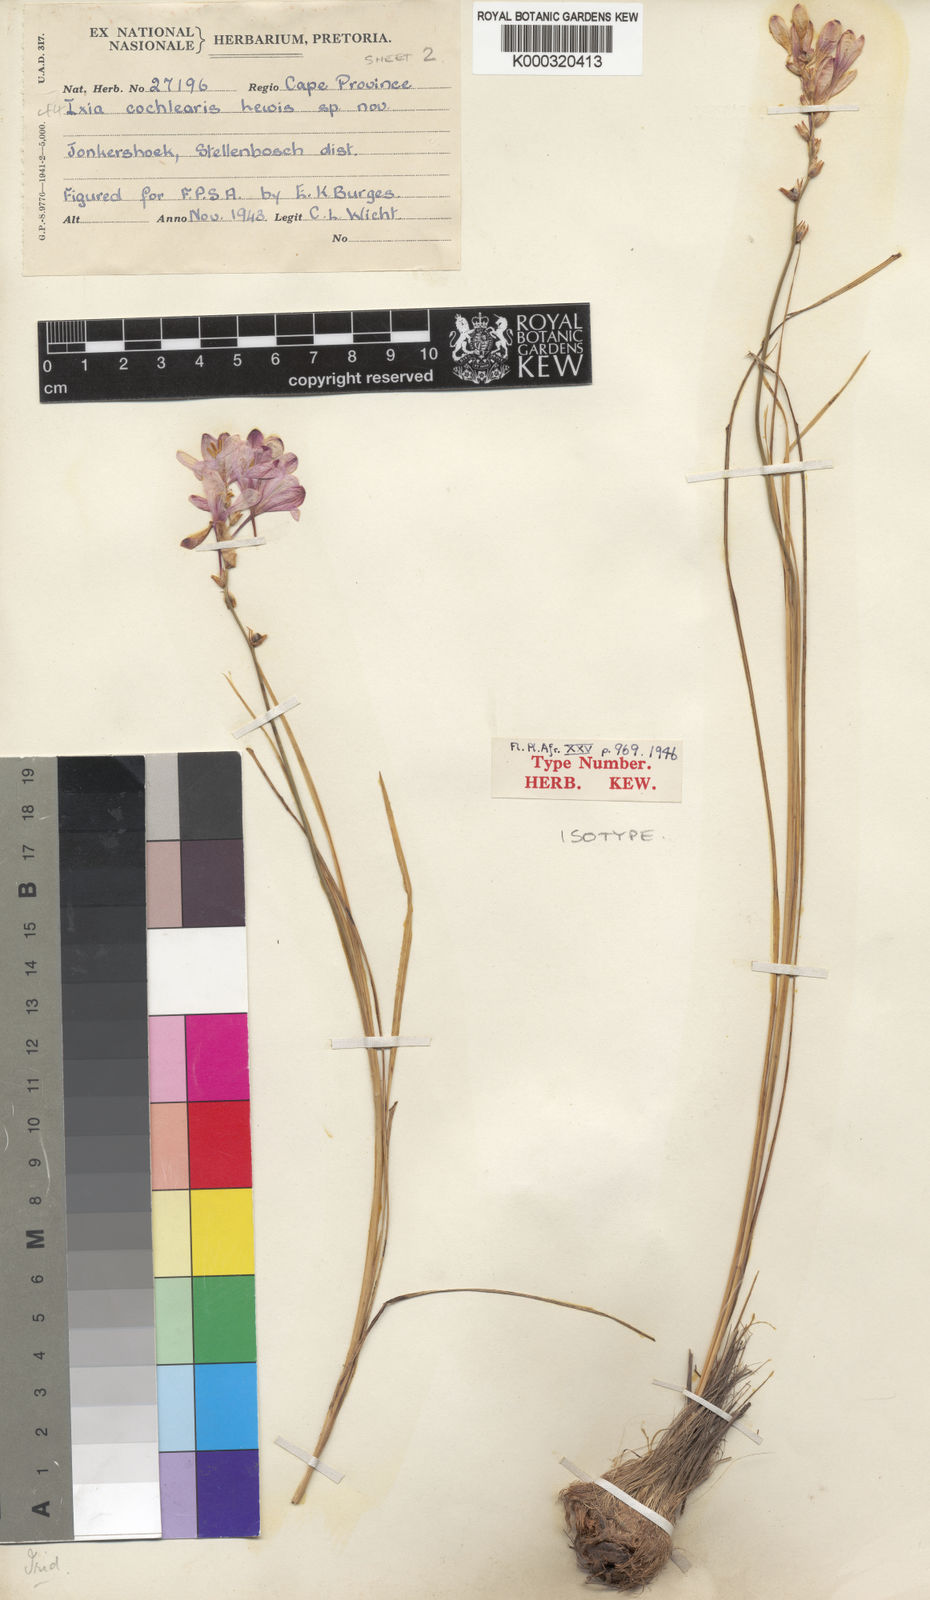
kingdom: Plantae
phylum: Tracheophyta
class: Liliopsida
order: Asparagales
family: Iridaceae
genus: Ixia
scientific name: Ixia cochlearis
